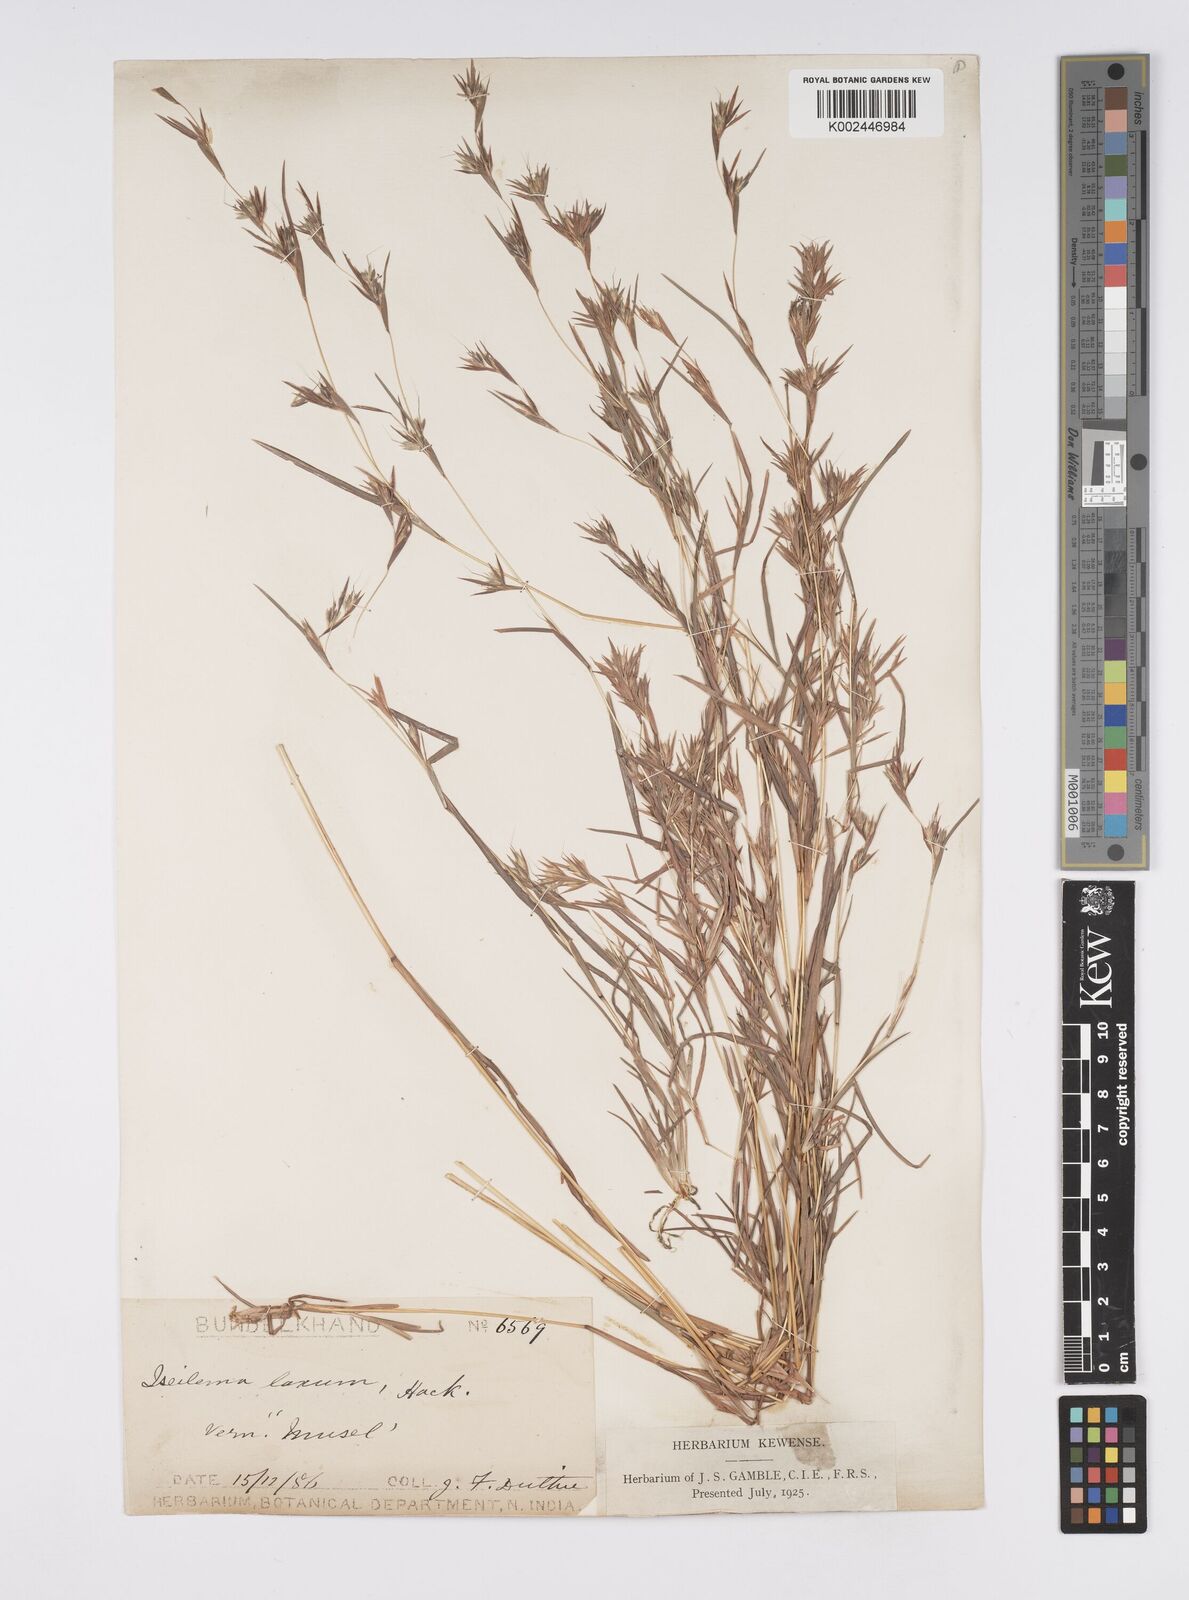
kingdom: Plantae
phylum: Tracheophyta
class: Liliopsida
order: Poales
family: Poaceae
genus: Iseilema
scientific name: Iseilema prostratum
